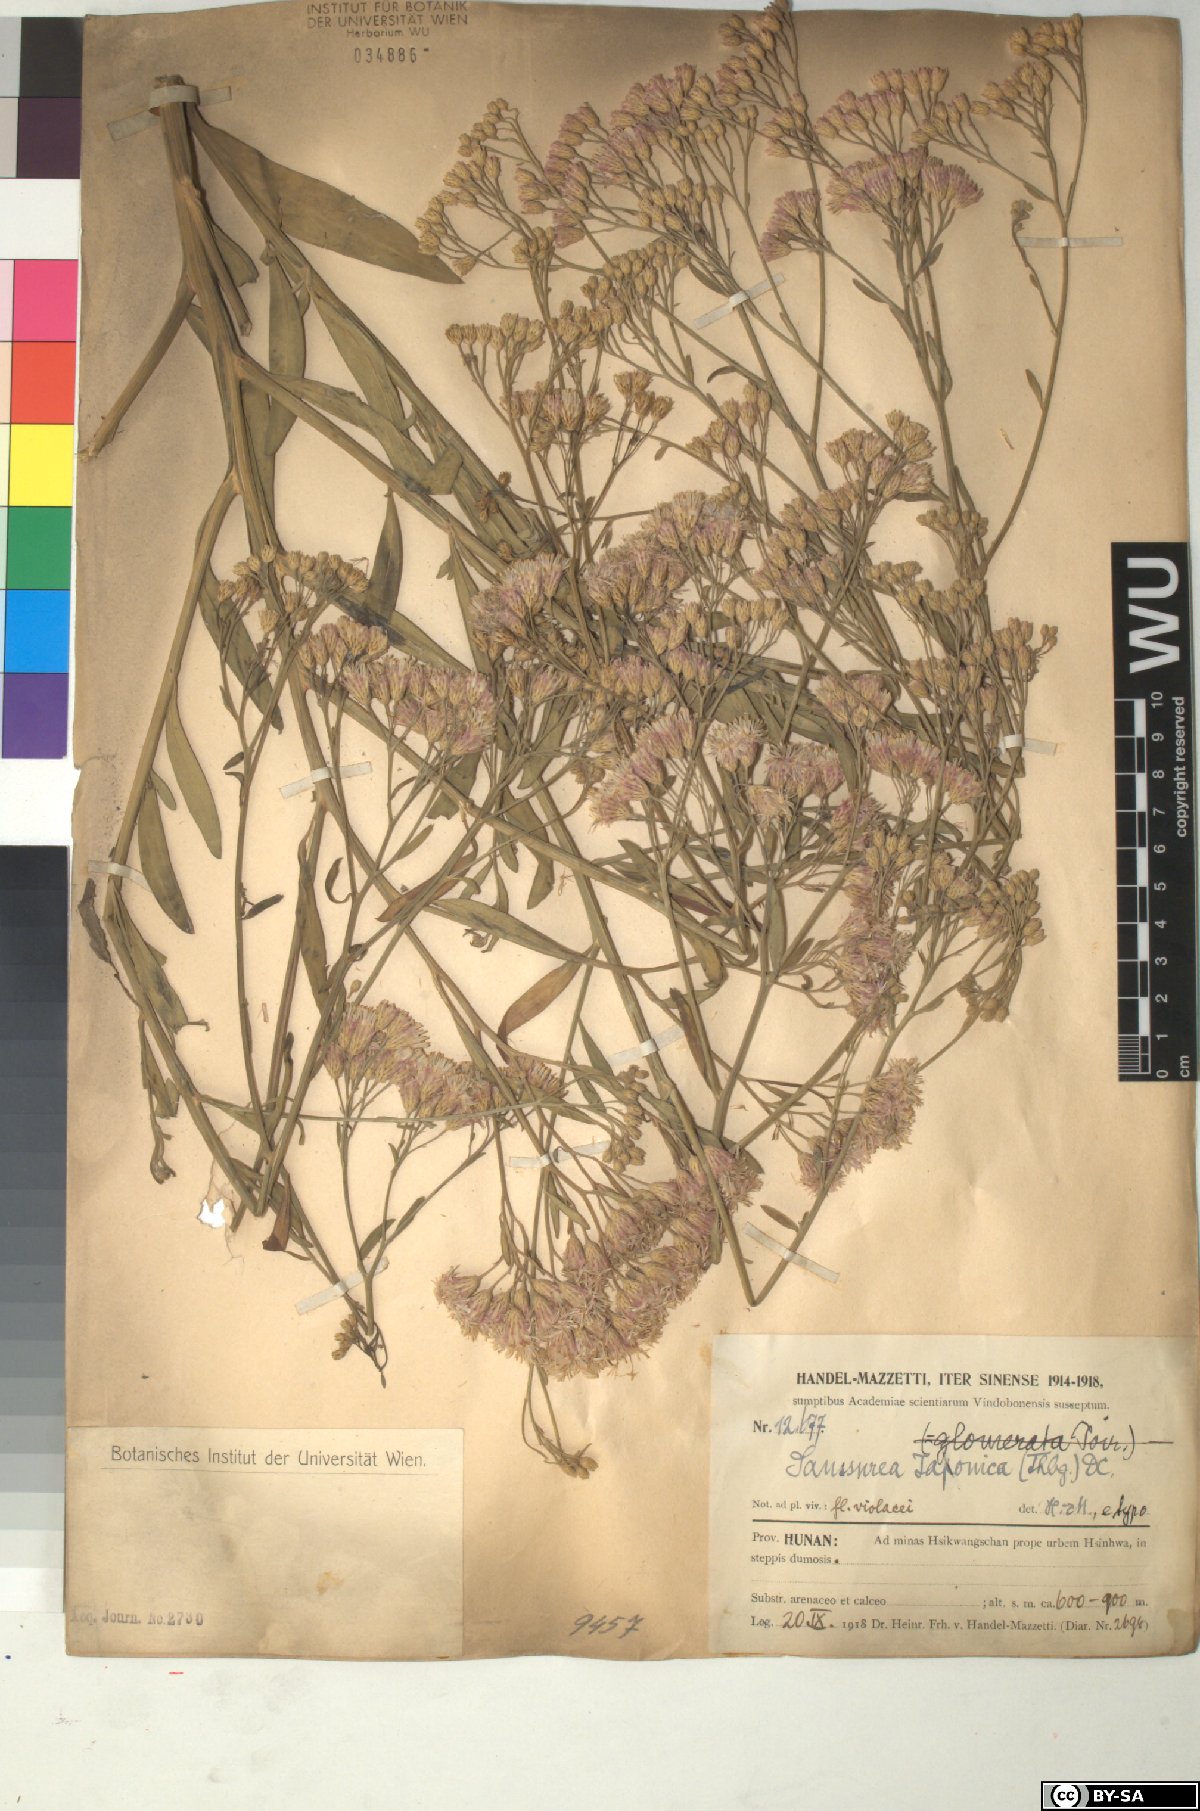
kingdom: Plantae
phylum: Tracheophyta
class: Magnoliopsida
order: Asterales
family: Asteraceae
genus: Saussurea
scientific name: Saussurea japonica
